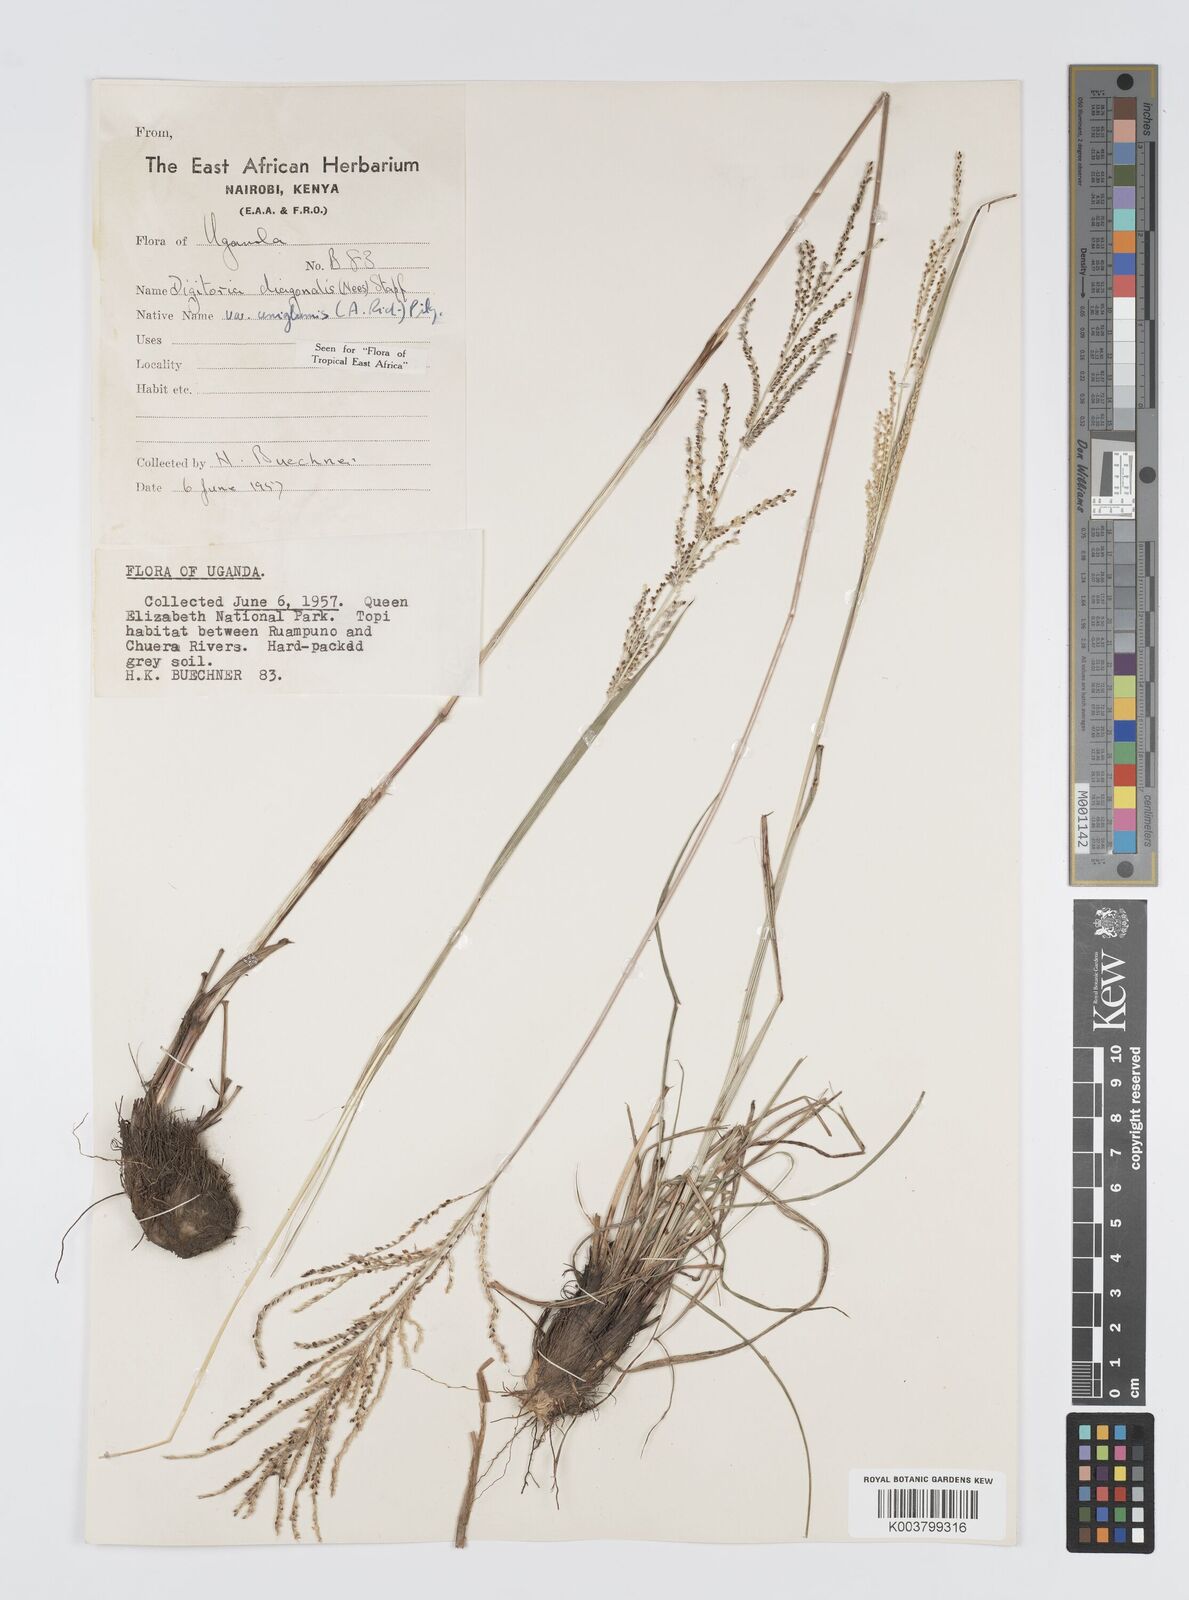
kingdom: Plantae
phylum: Tracheophyta
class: Liliopsida
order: Poales
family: Poaceae
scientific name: Poaceae
